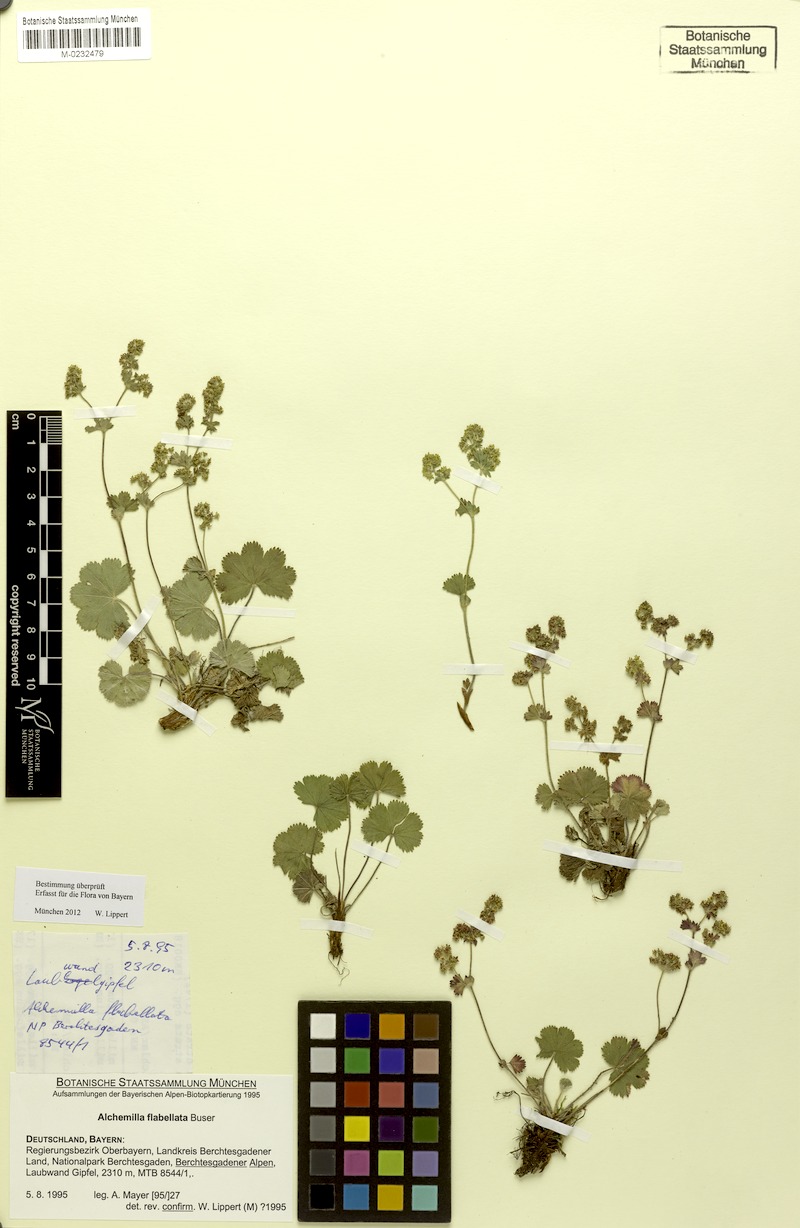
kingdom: Plantae
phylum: Tracheophyta
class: Magnoliopsida
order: Rosales
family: Rosaceae
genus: Alchemilla
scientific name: Alchemilla flabellata
